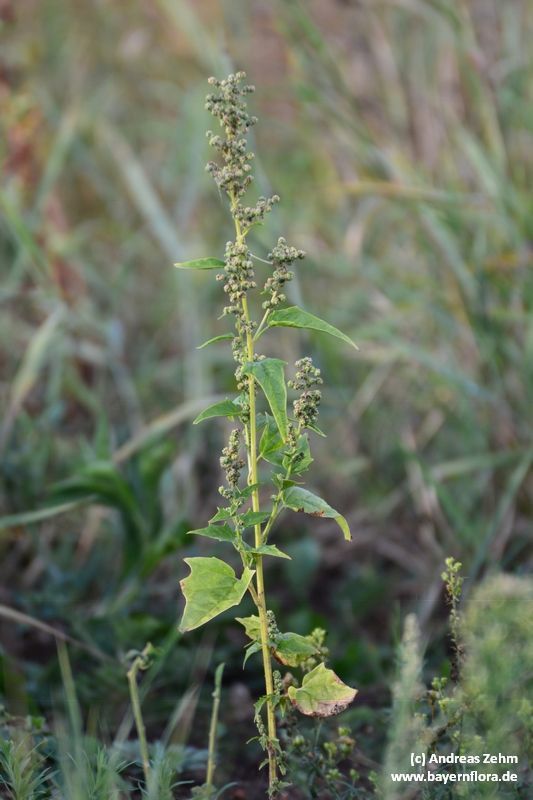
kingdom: Plantae
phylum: Tracheophyta
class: Magnoliopsida
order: Caryophyllales
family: Amaranthaceae
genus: Chenopodiastrum
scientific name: Chenopodiastrum hybridum
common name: Mapleleaf goosefoot
